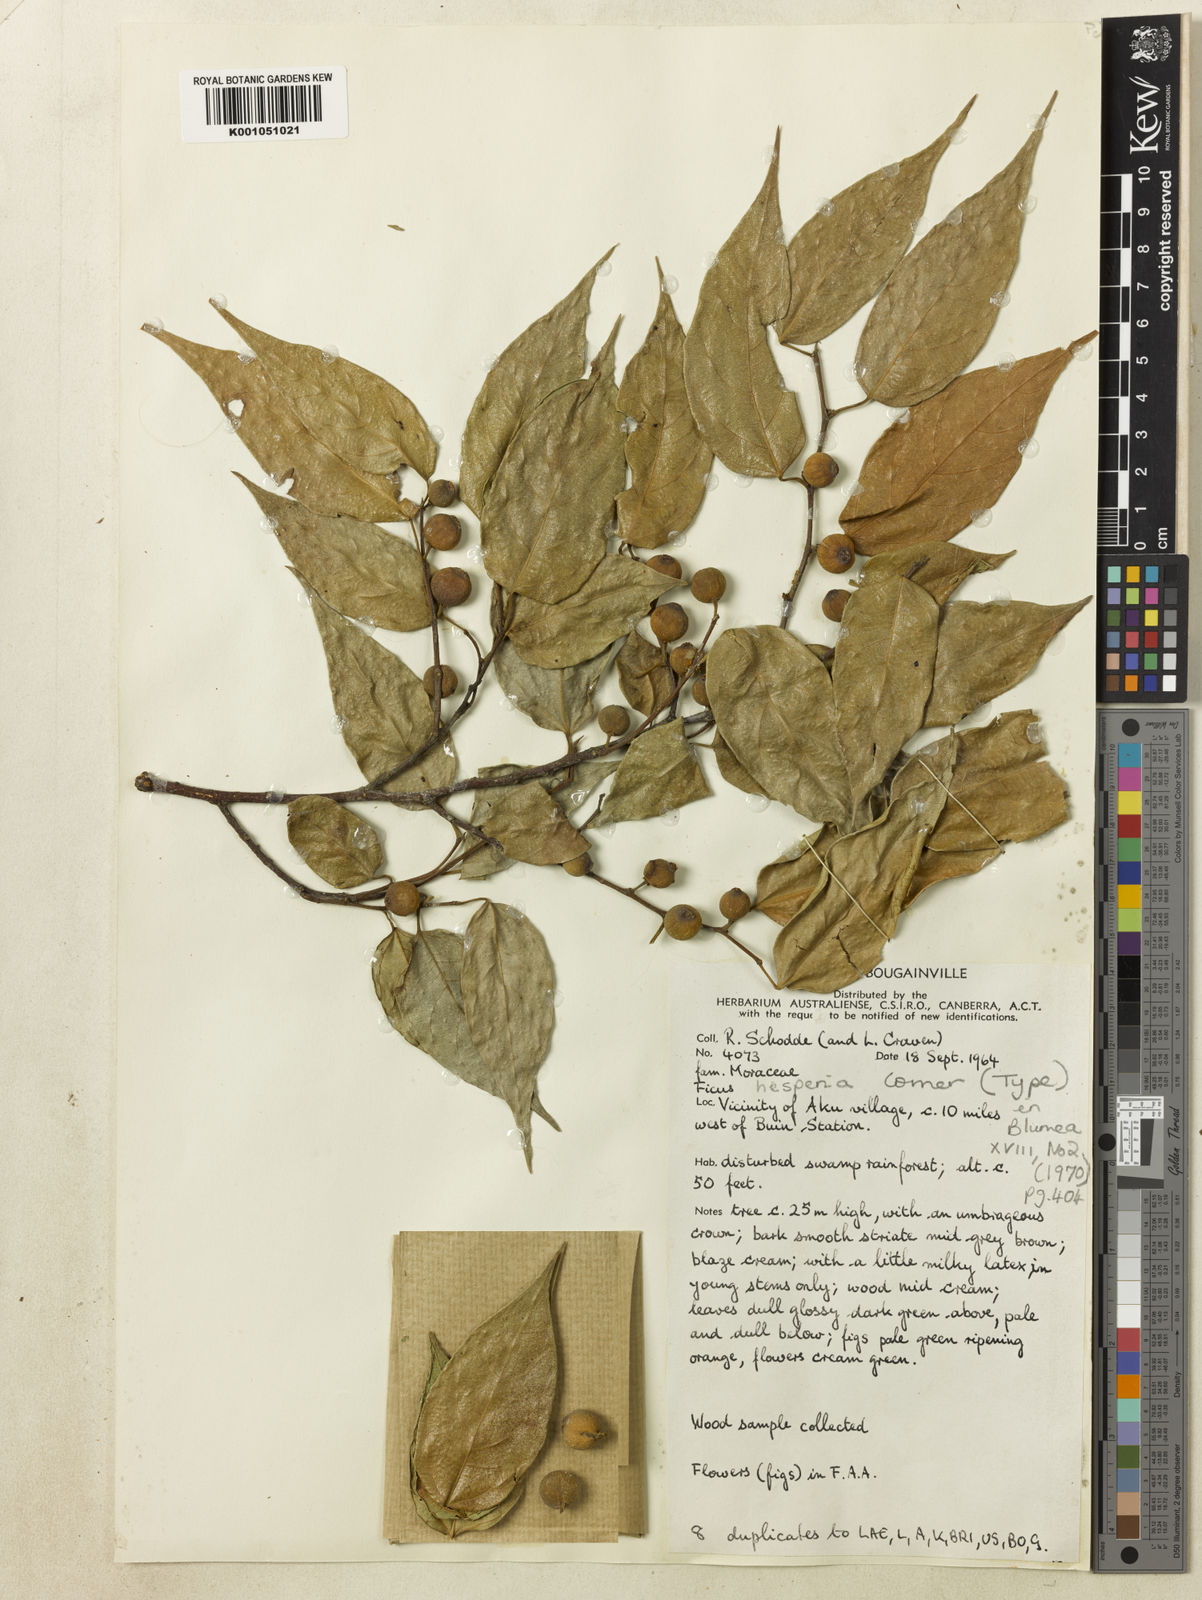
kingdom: Plantae
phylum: Tracheophyta
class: Magnoliopsida
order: Rosales
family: Moraceae
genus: Ficus
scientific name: Ficus solomonensis
